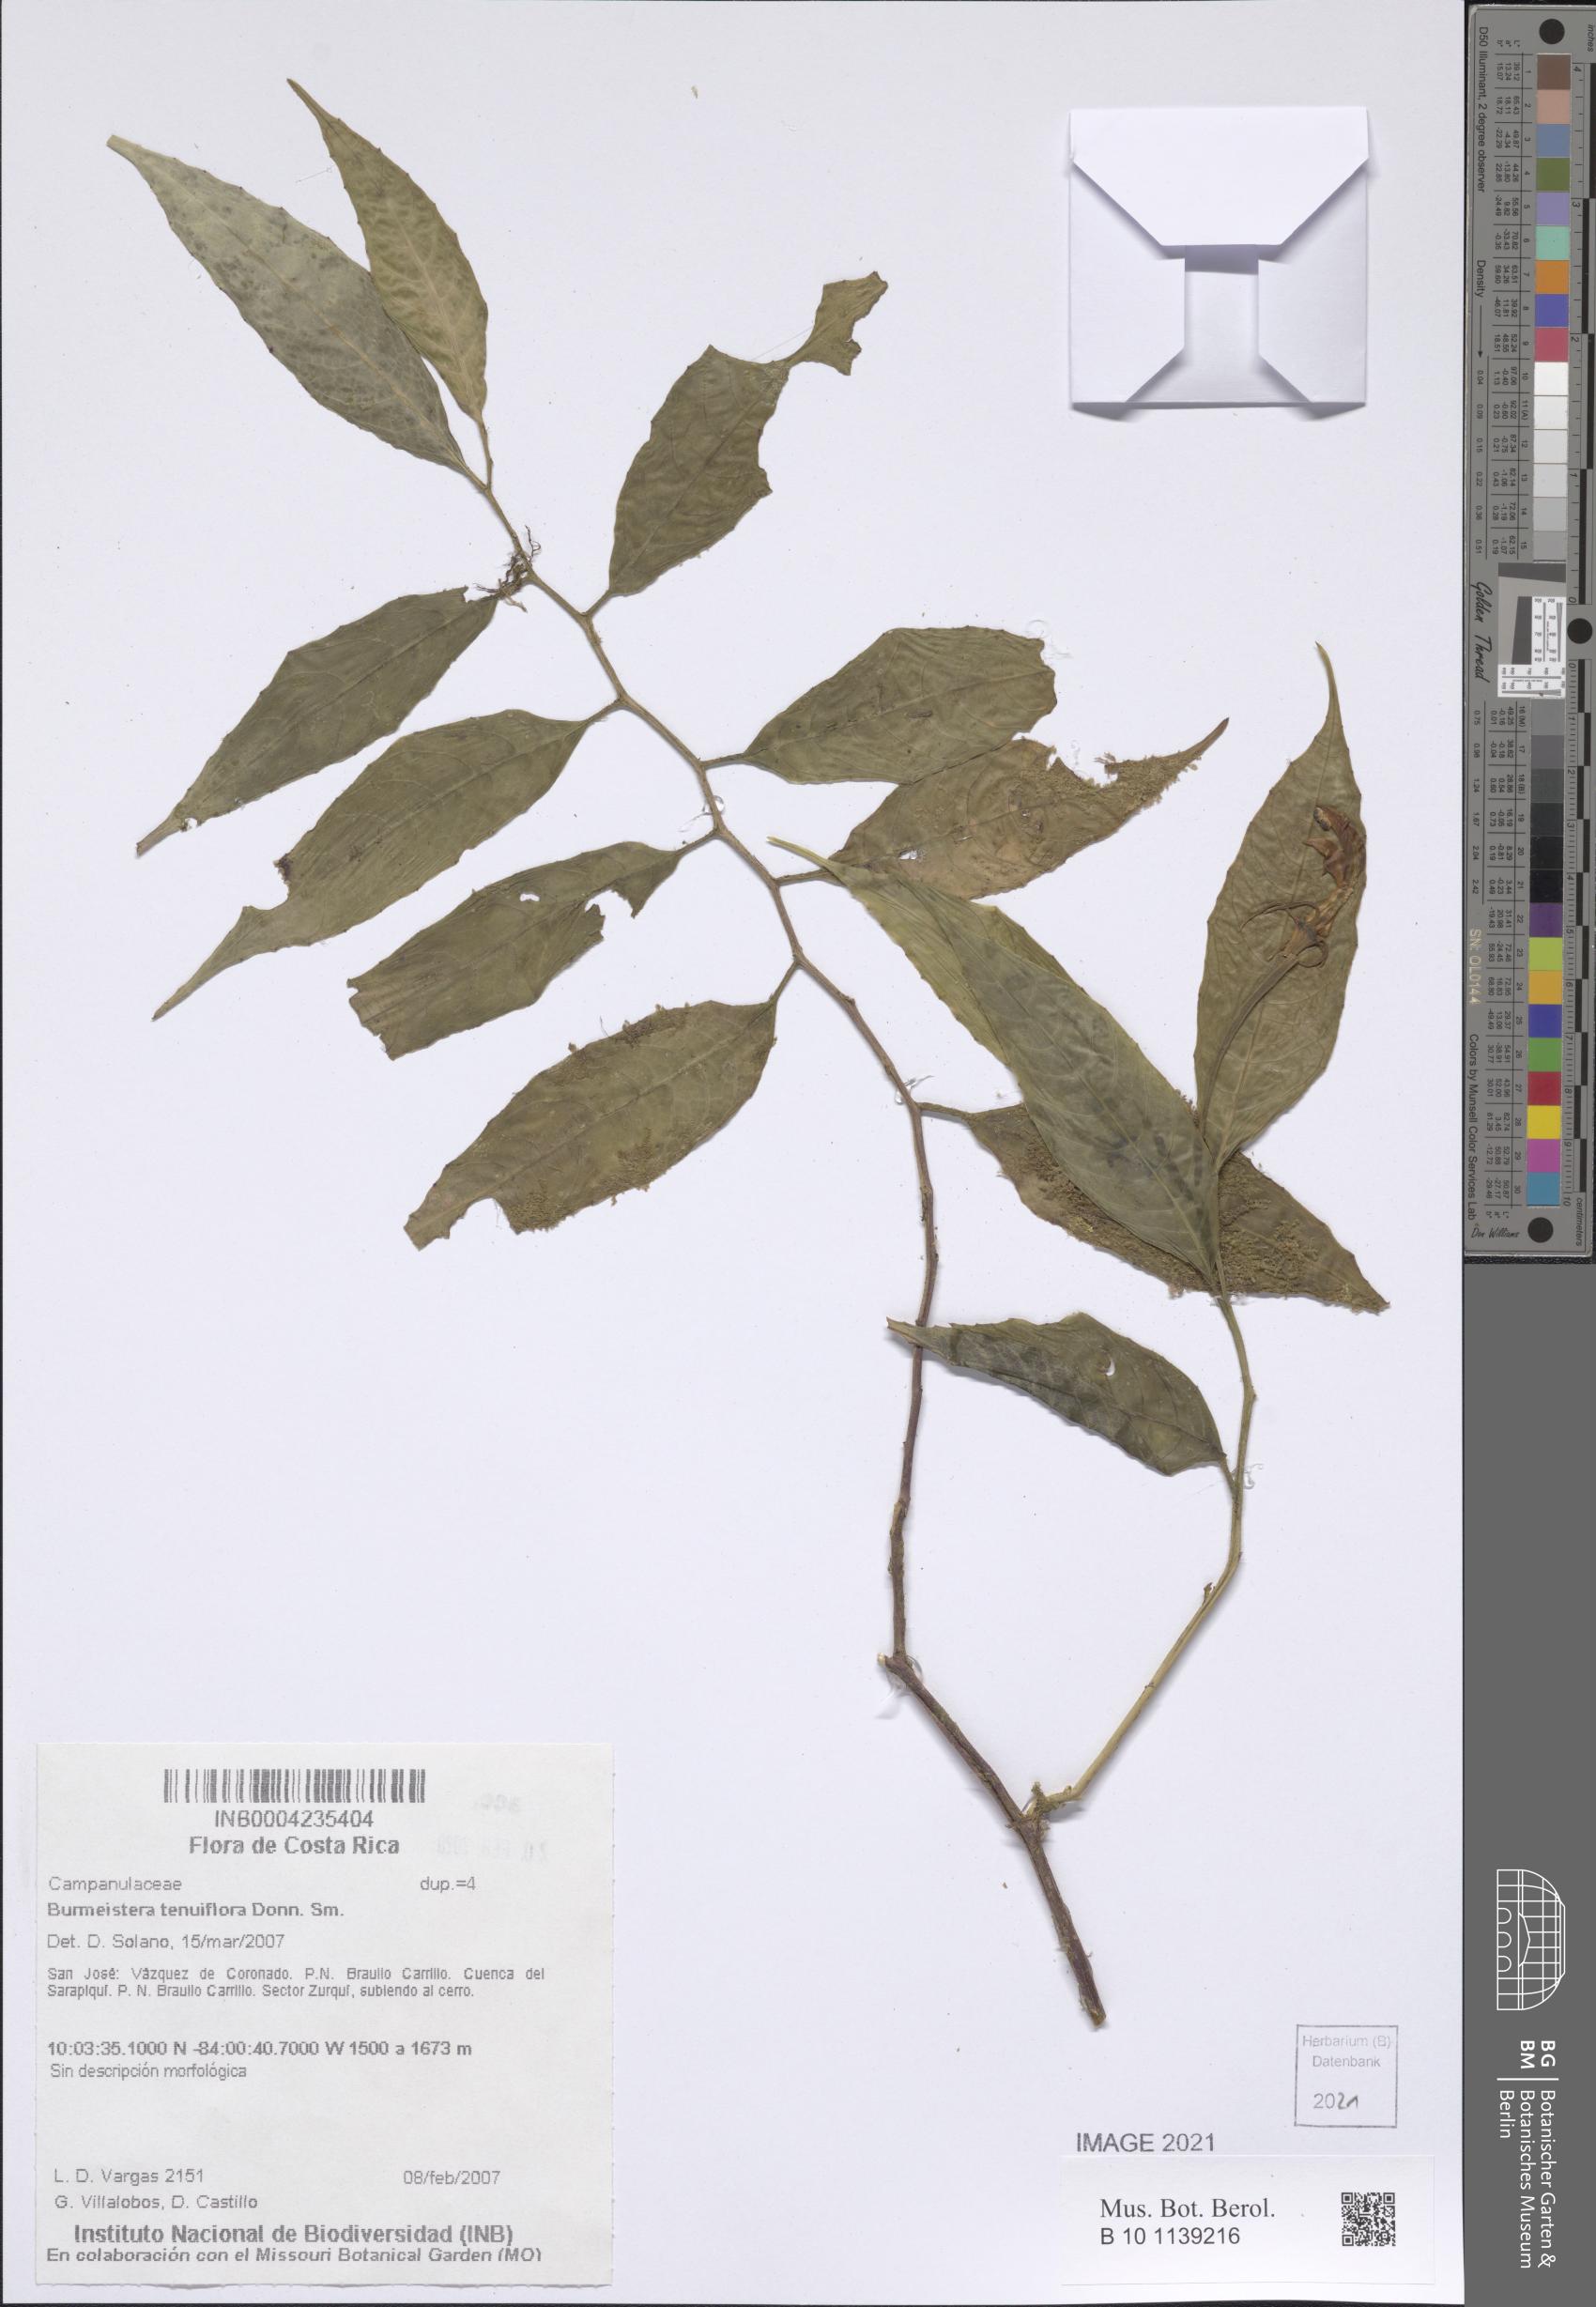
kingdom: Plantae
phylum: Tracheophyta
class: Magnoliopsida
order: Asterales
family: Campanulaceae
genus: Burmeistera
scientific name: Burmeistera tenuiflora
